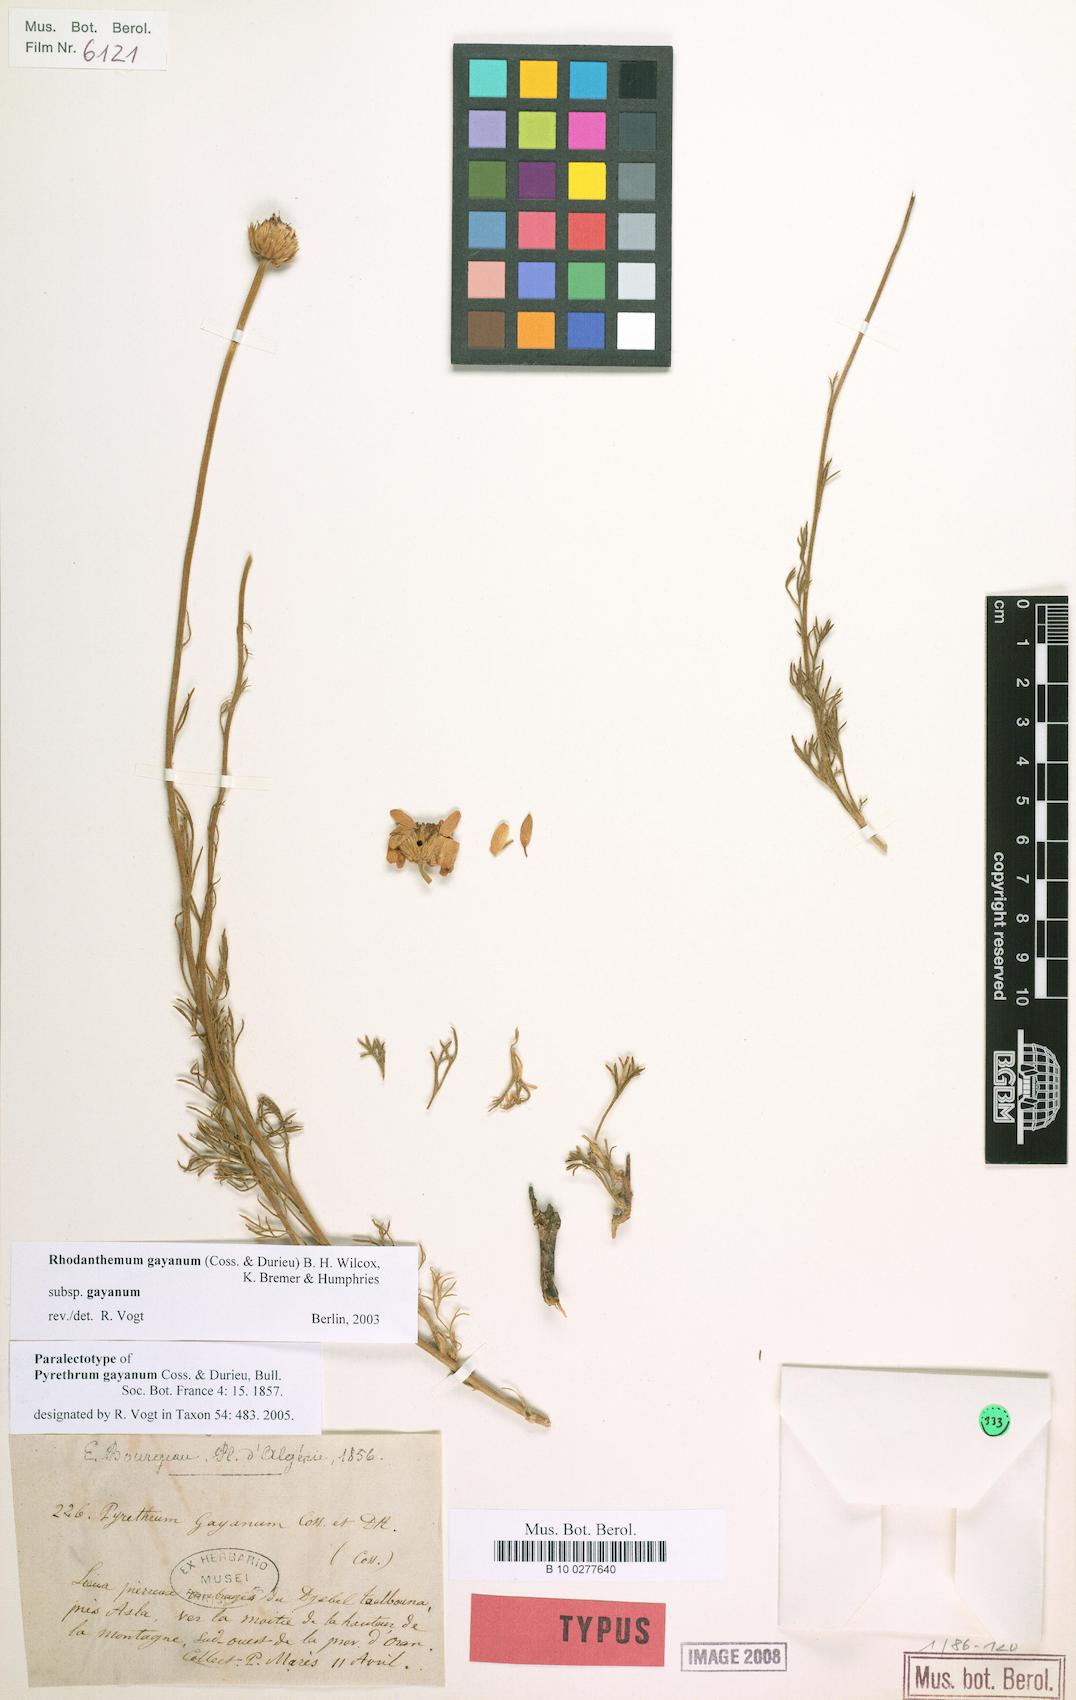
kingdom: Plantae
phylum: Tracheophyta
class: Magnoliopsida
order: Asterales
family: Asteraceae
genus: Rhodanthemum
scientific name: Rhodanthemum gayanum
